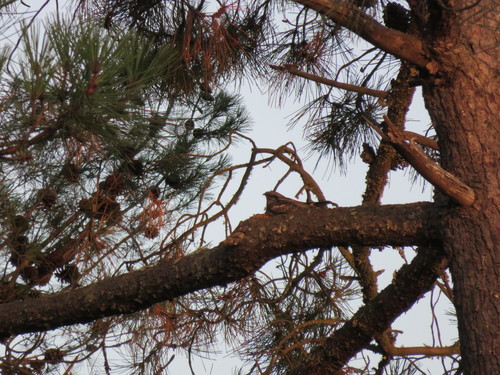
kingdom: Animalia
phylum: Chordata
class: Aves
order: Caprimulgiformes
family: Caprimulgidae
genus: Caprimulgus
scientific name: Caprimulgus europaeus
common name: European nightjar
